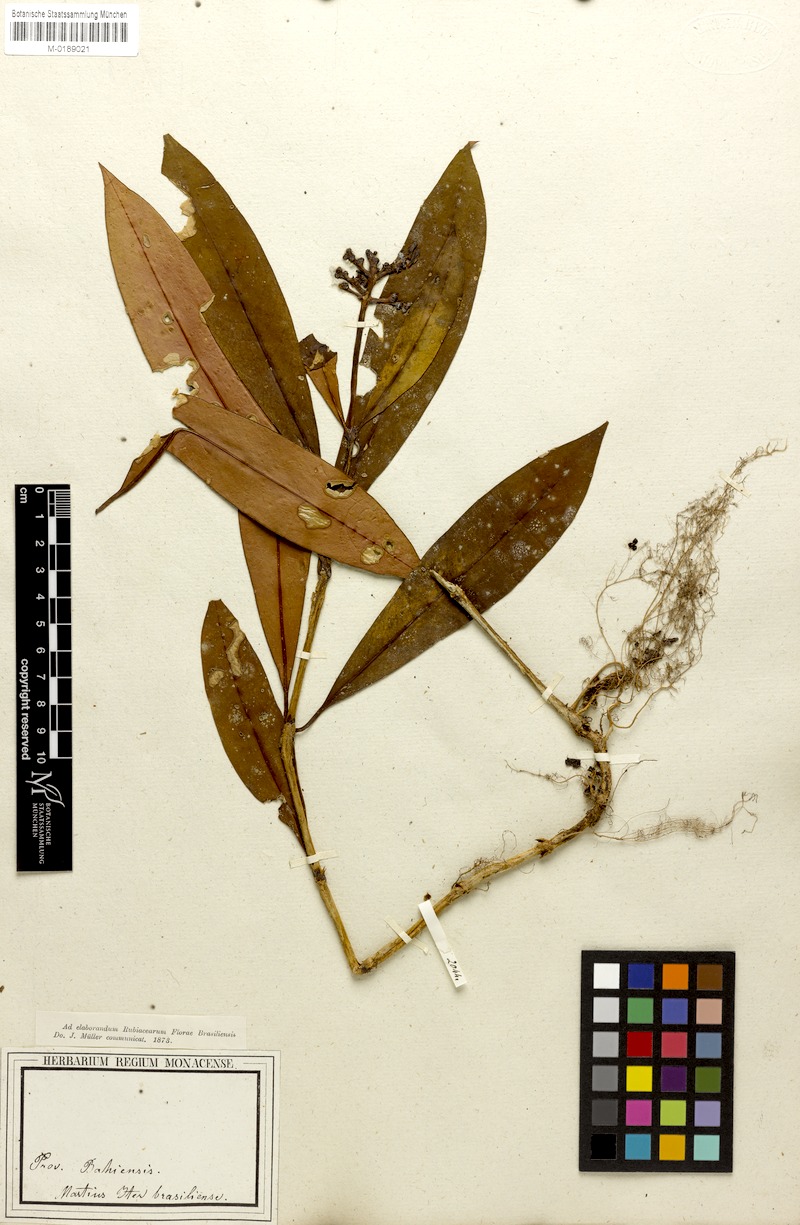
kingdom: Plantae
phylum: Tracheophyta
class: Magnoliopsida
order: Gentianales
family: Rubiaceae
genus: Palicourea
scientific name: Palicourea jambosioides
